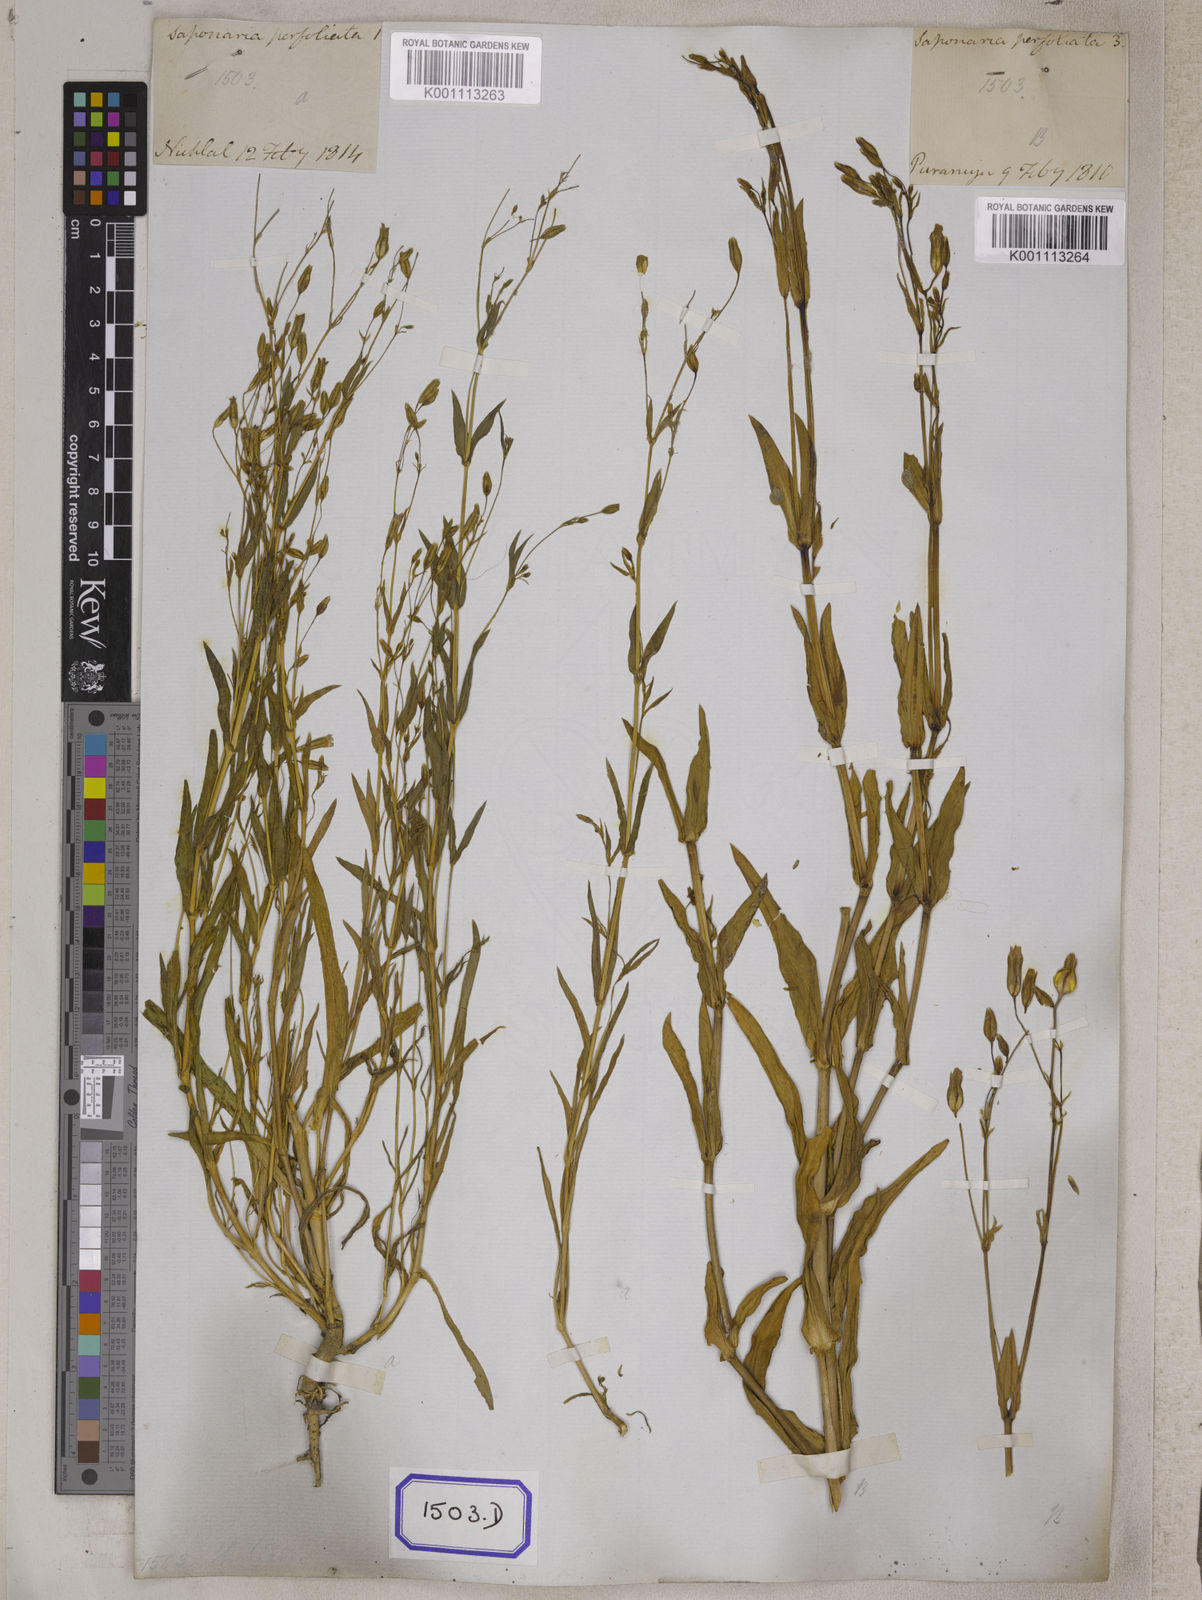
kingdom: Plantae
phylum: Tracheophyta
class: Magnoliopsida
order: Caryophyllales
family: Caryophyllaceae
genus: Gypsophila
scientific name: Gypsophila vaccaria
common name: Cow soapwort
